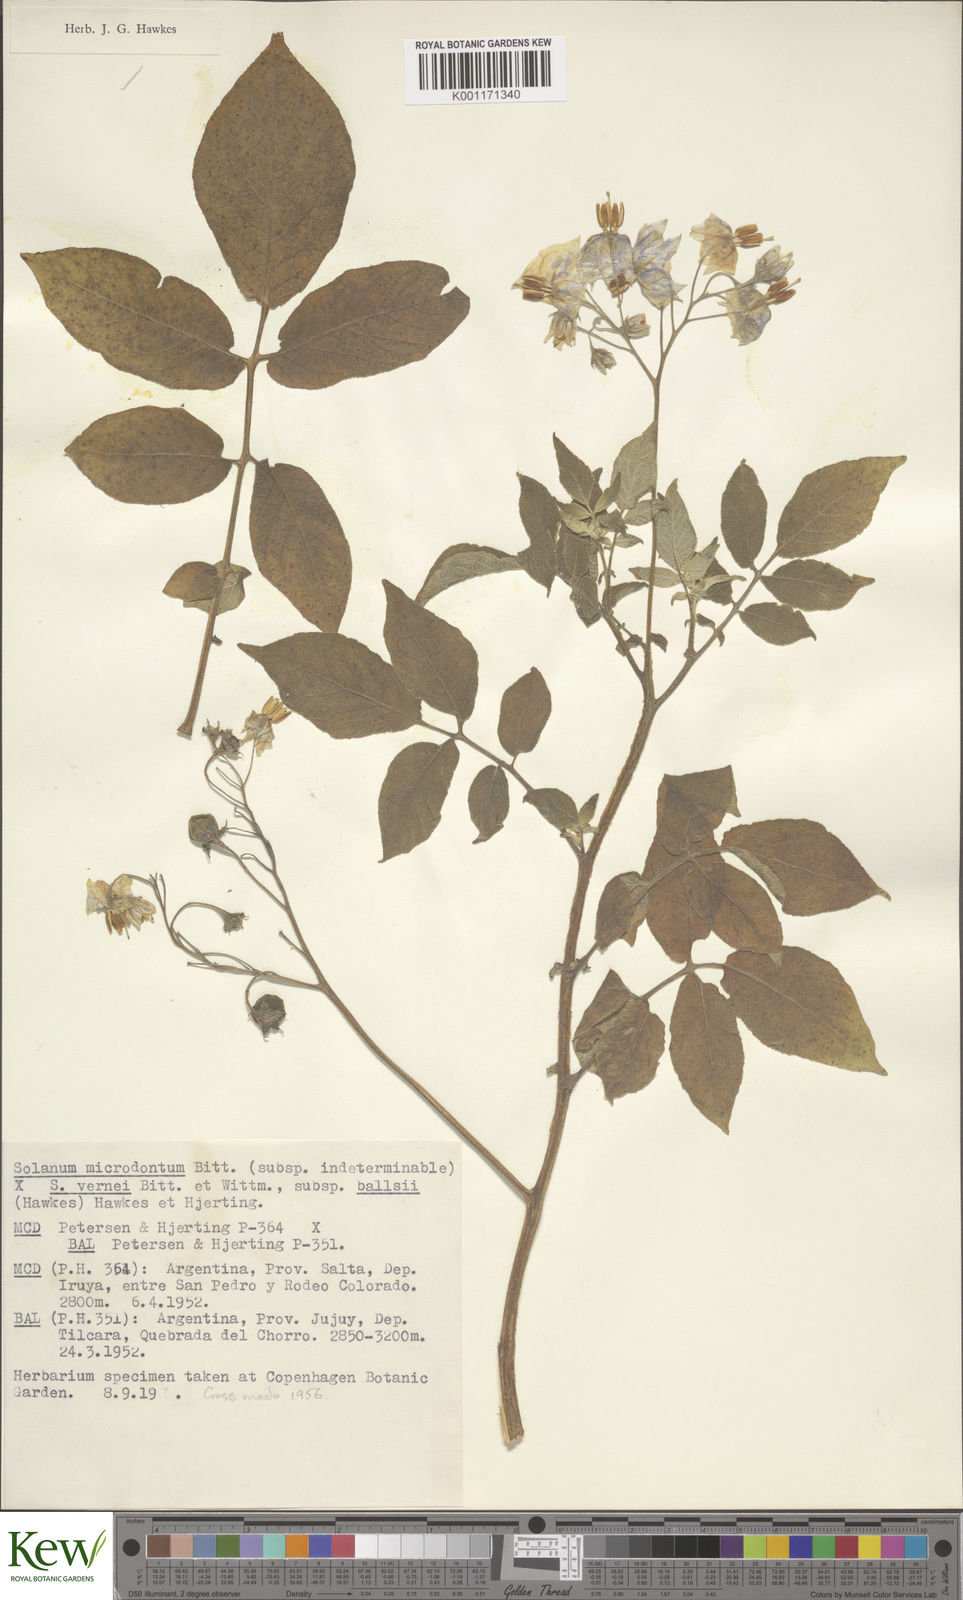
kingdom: Plantae
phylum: Tracheophyta
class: Magnoliopsida
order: Solanales
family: Solanaceae
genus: Solanum
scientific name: Solanum vernei
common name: Purple potato
